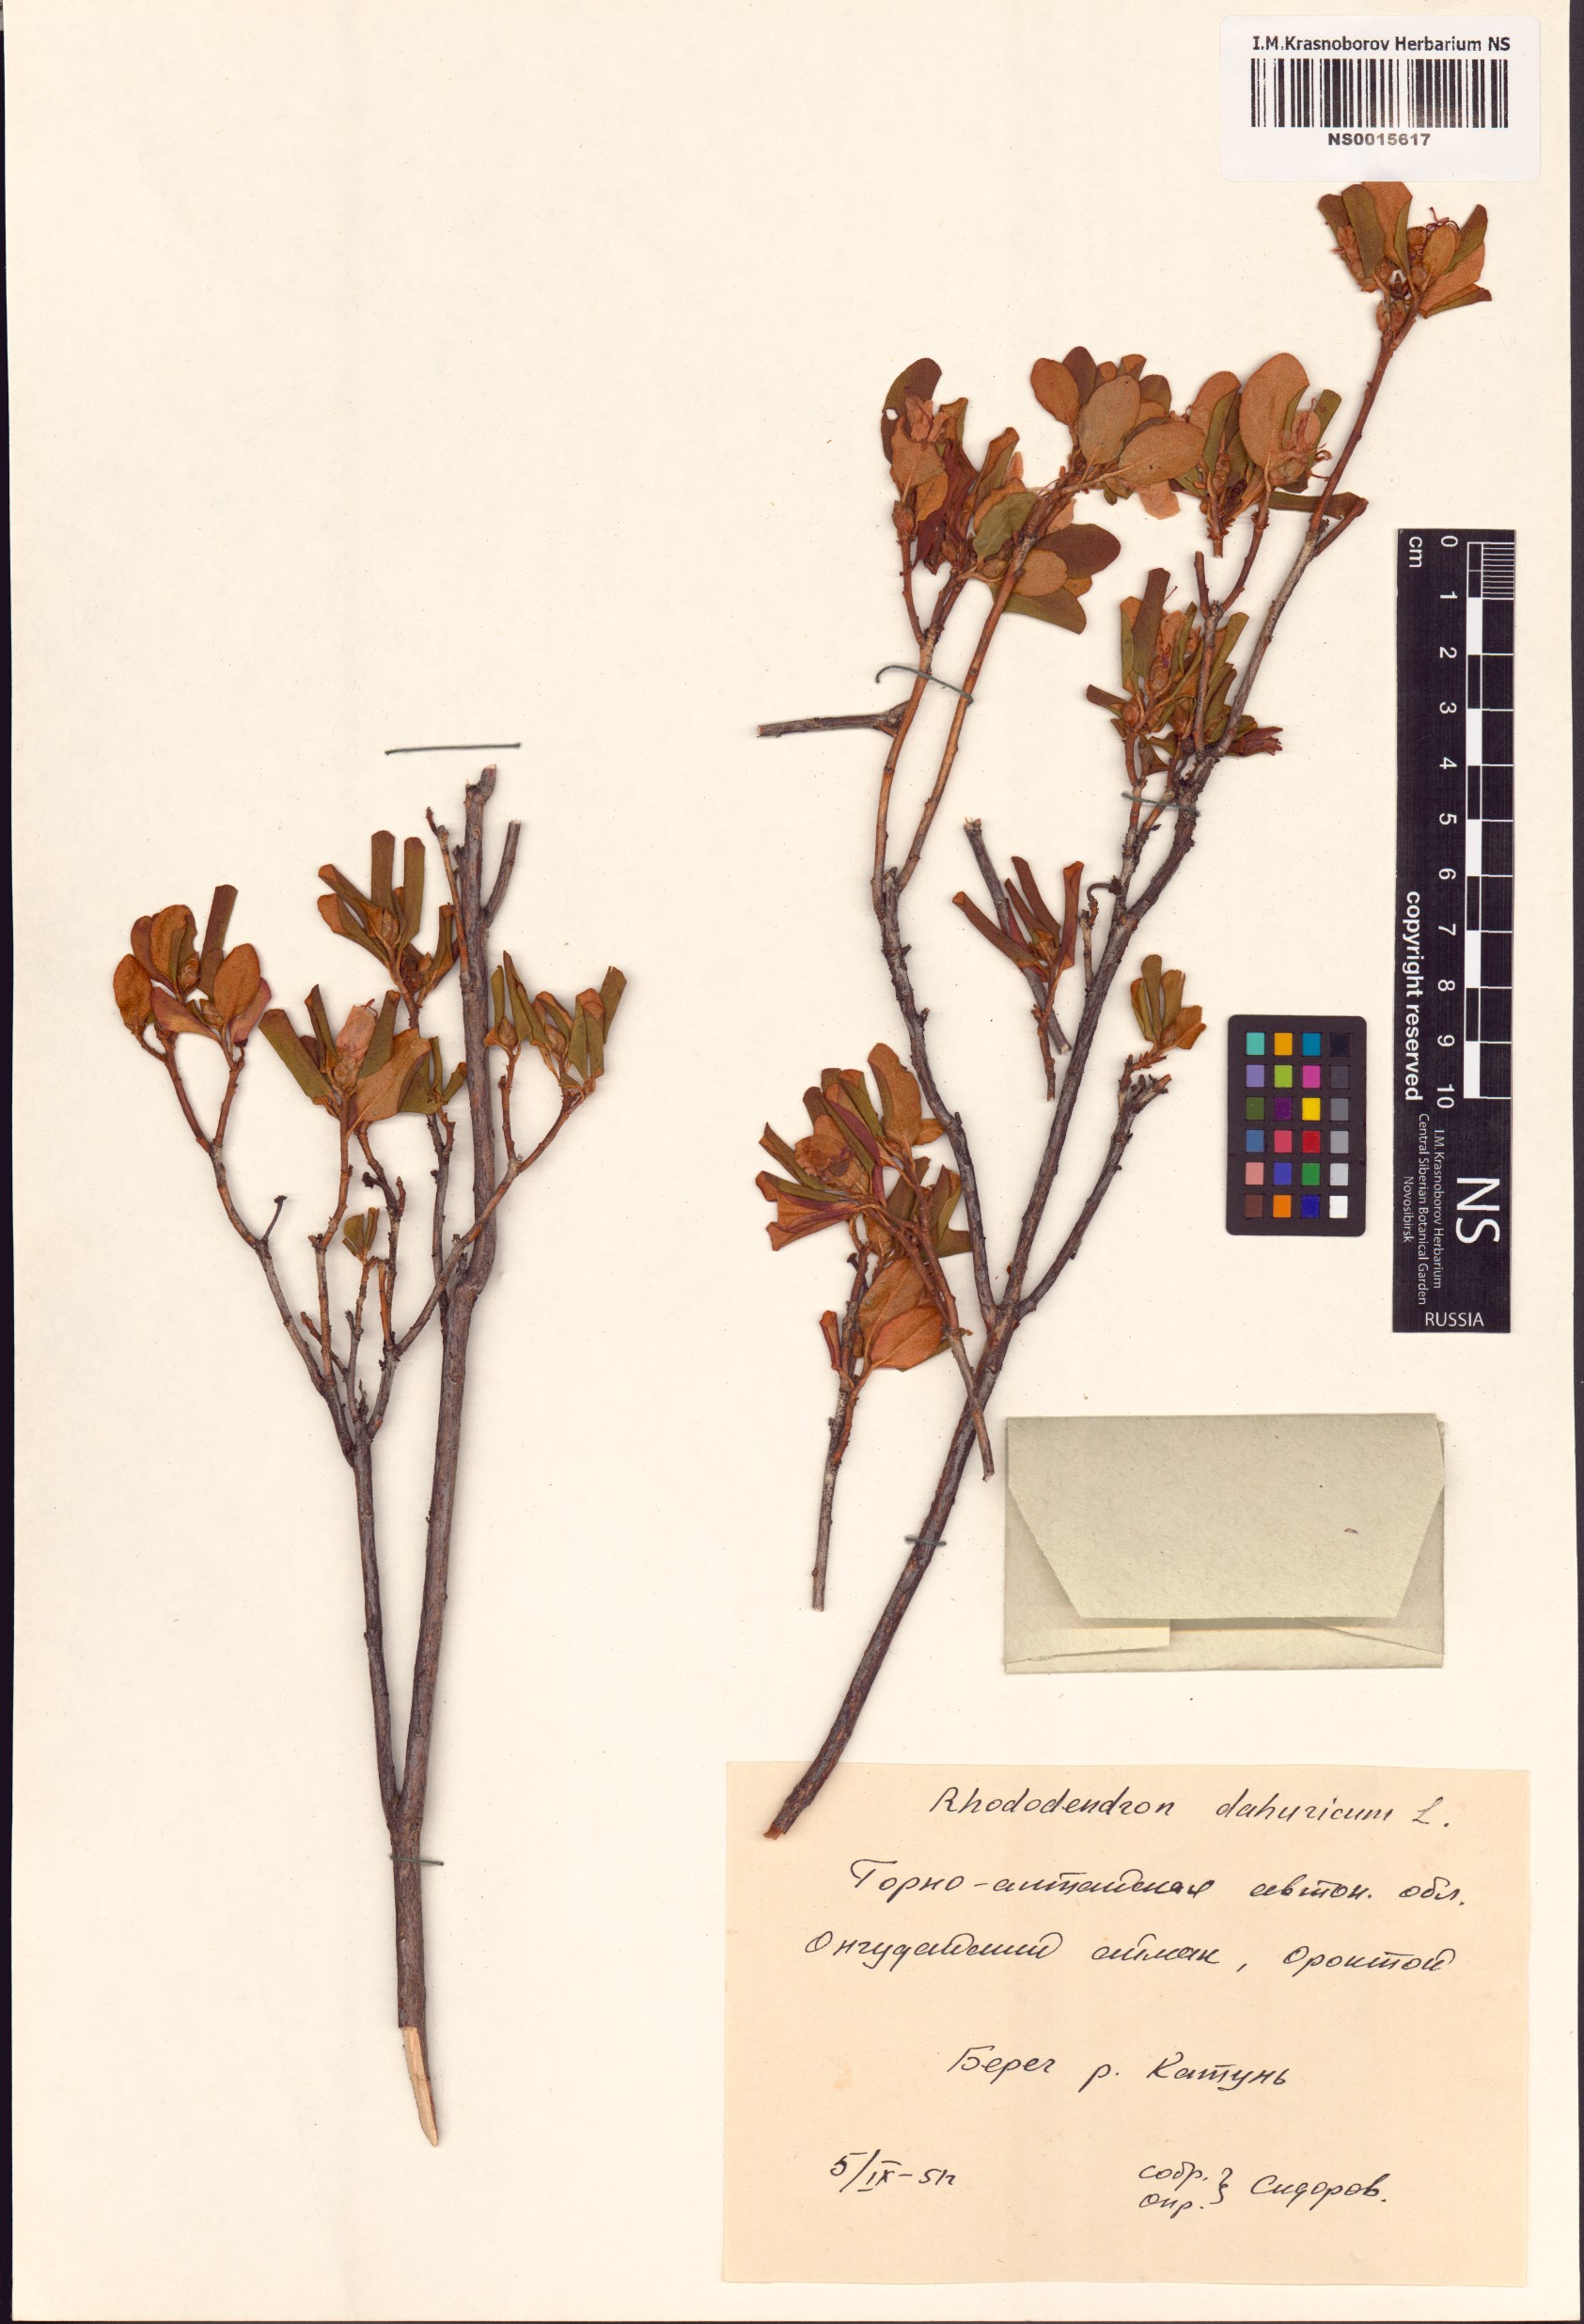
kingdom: Plantae
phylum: Tracheophyta
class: Magnoliopsida
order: Ericales
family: Ericaceae
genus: Rhododendron
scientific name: Rhododendron dauricum
